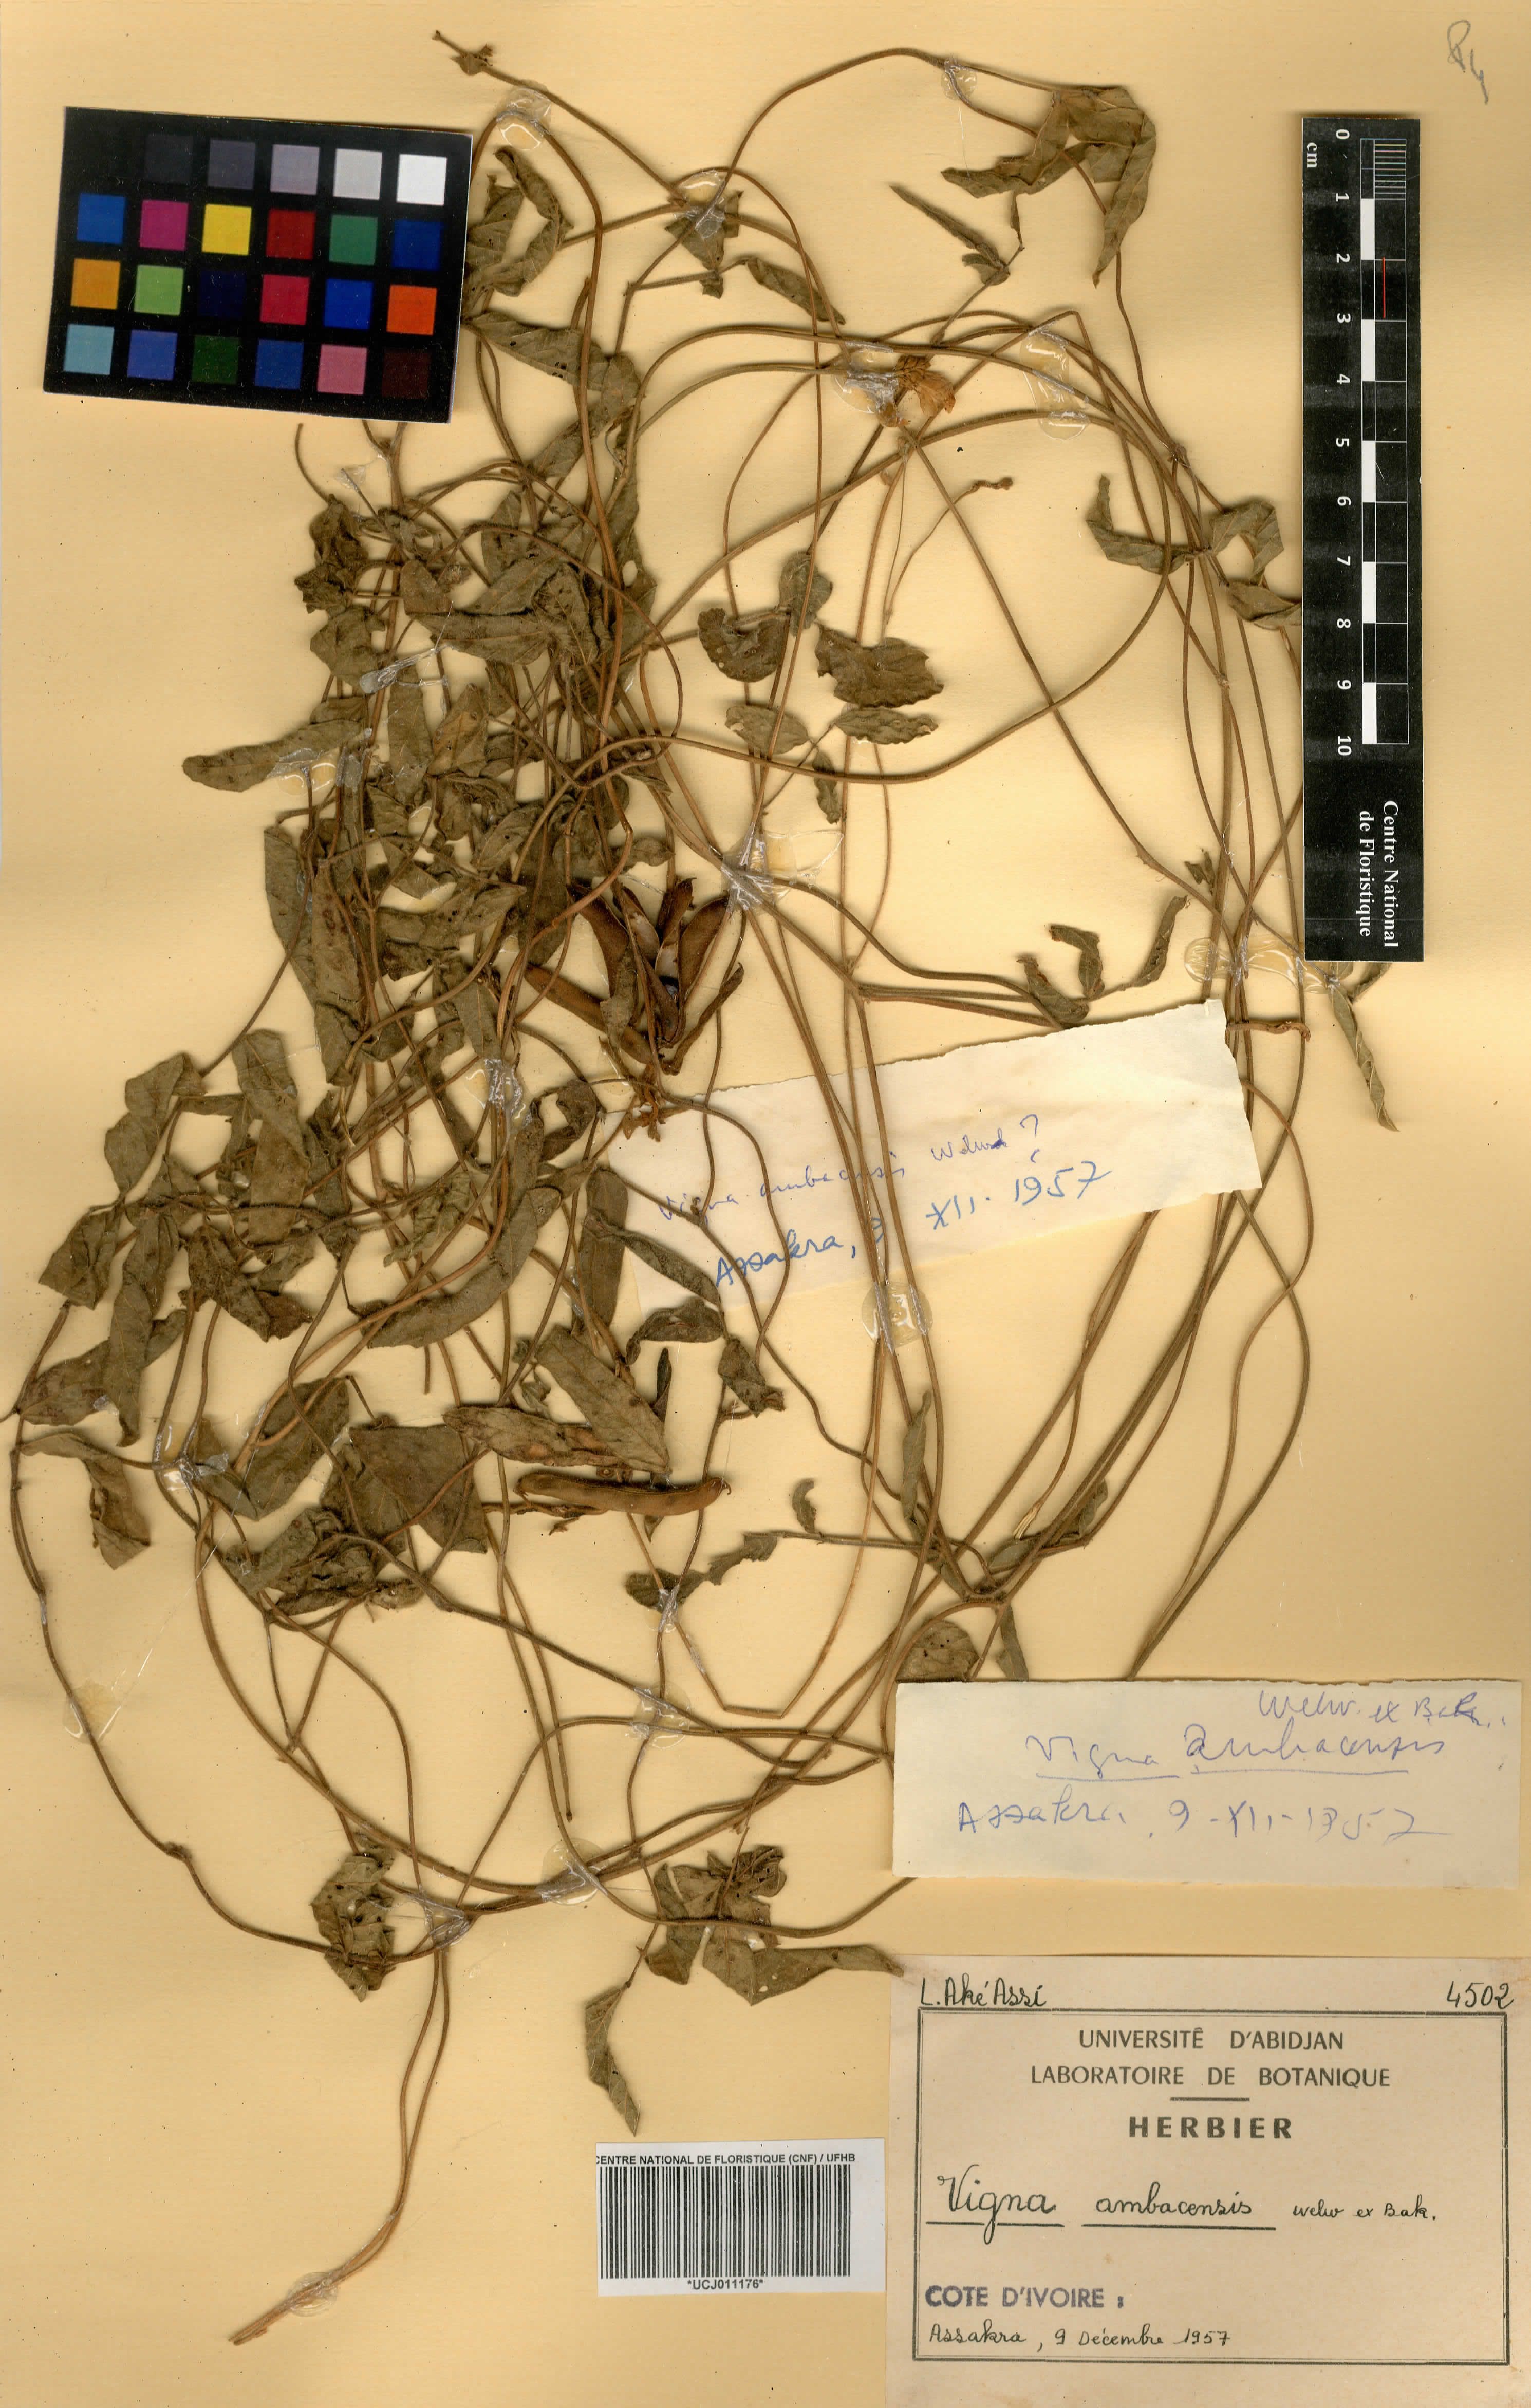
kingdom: Plantae
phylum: Tracheophyta
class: Magnoliopsida
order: Fabales
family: Fabaceae
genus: Vigna
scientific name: Vigna ambacensis
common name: Tsarkiyan zomo
